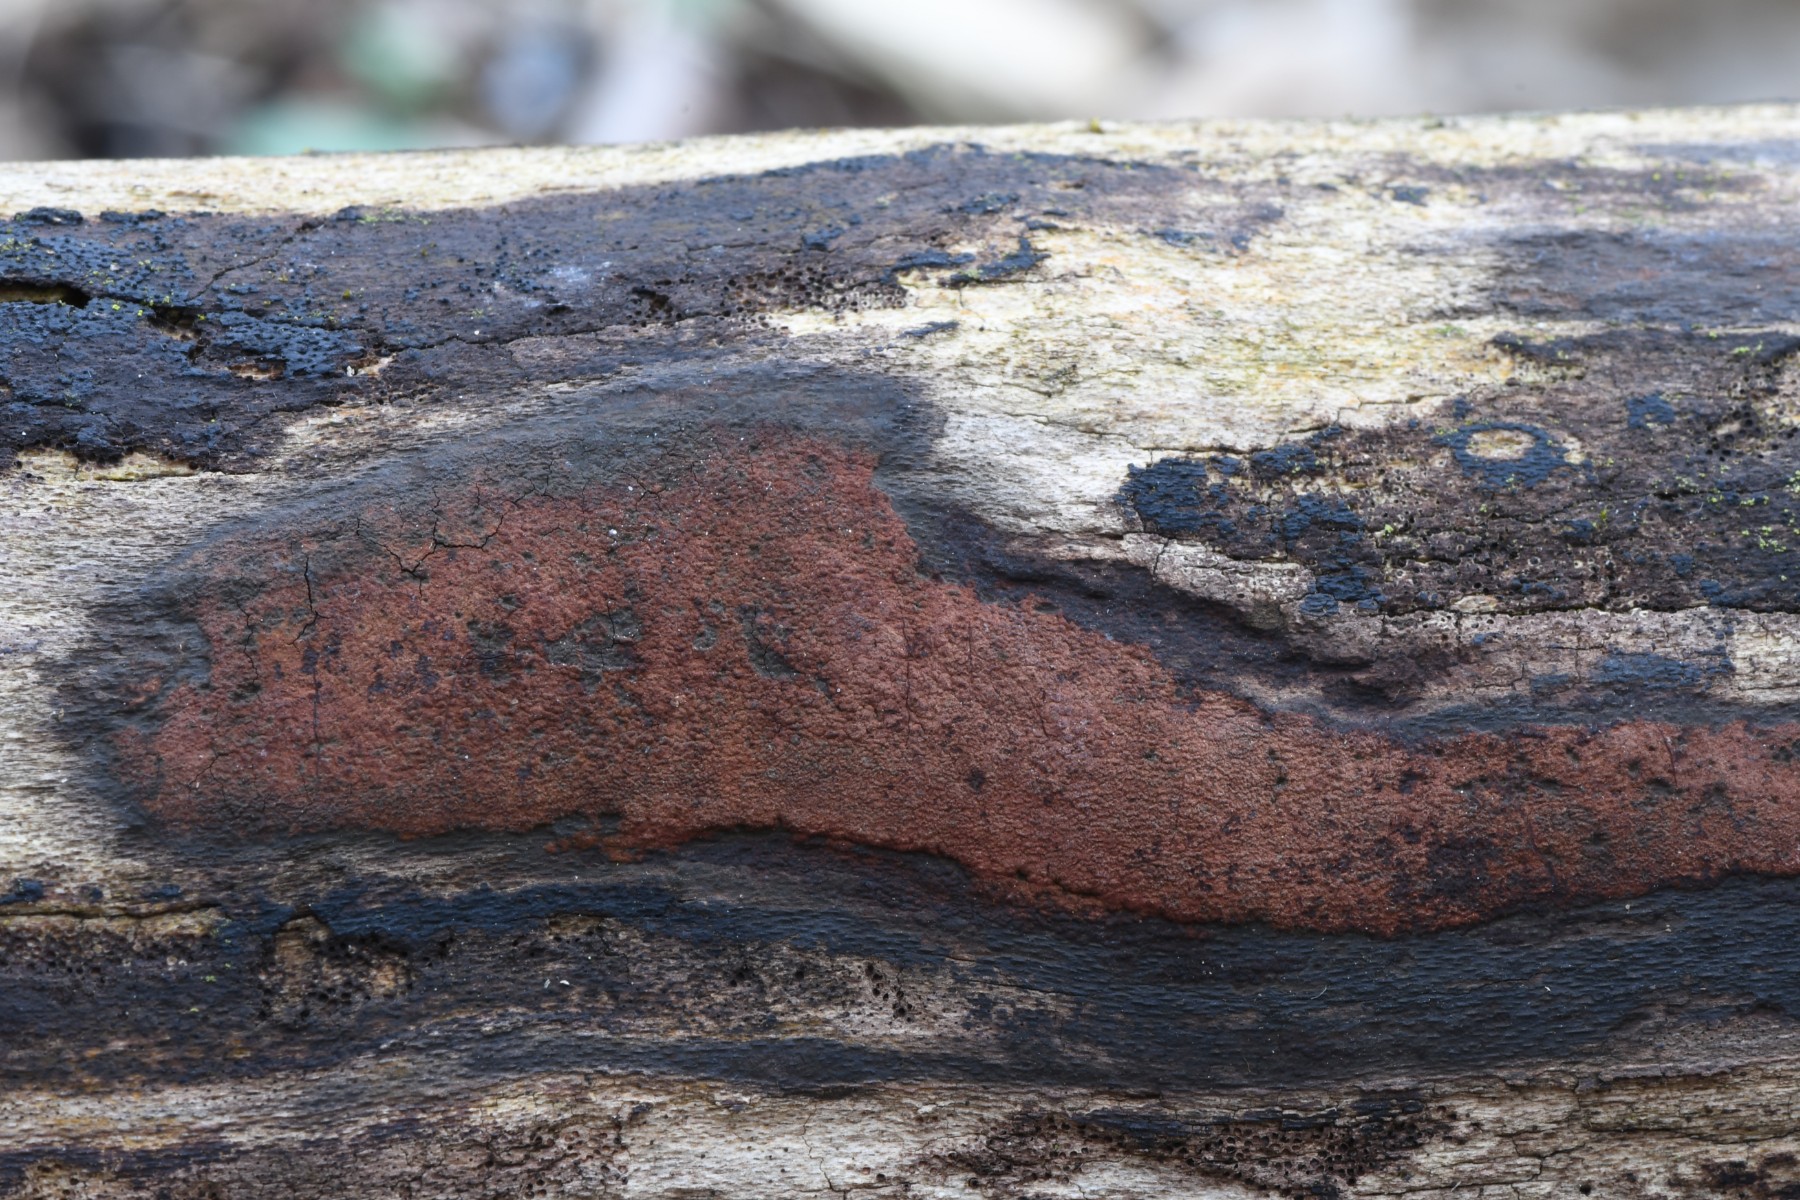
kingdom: Fungi
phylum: Ascomycota
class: Sordariomycetes
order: Xylariales
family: Hypoxylaceae
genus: Hypoxylon
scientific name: Hypoxylon macrocarpum
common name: skorpe-kulbær
